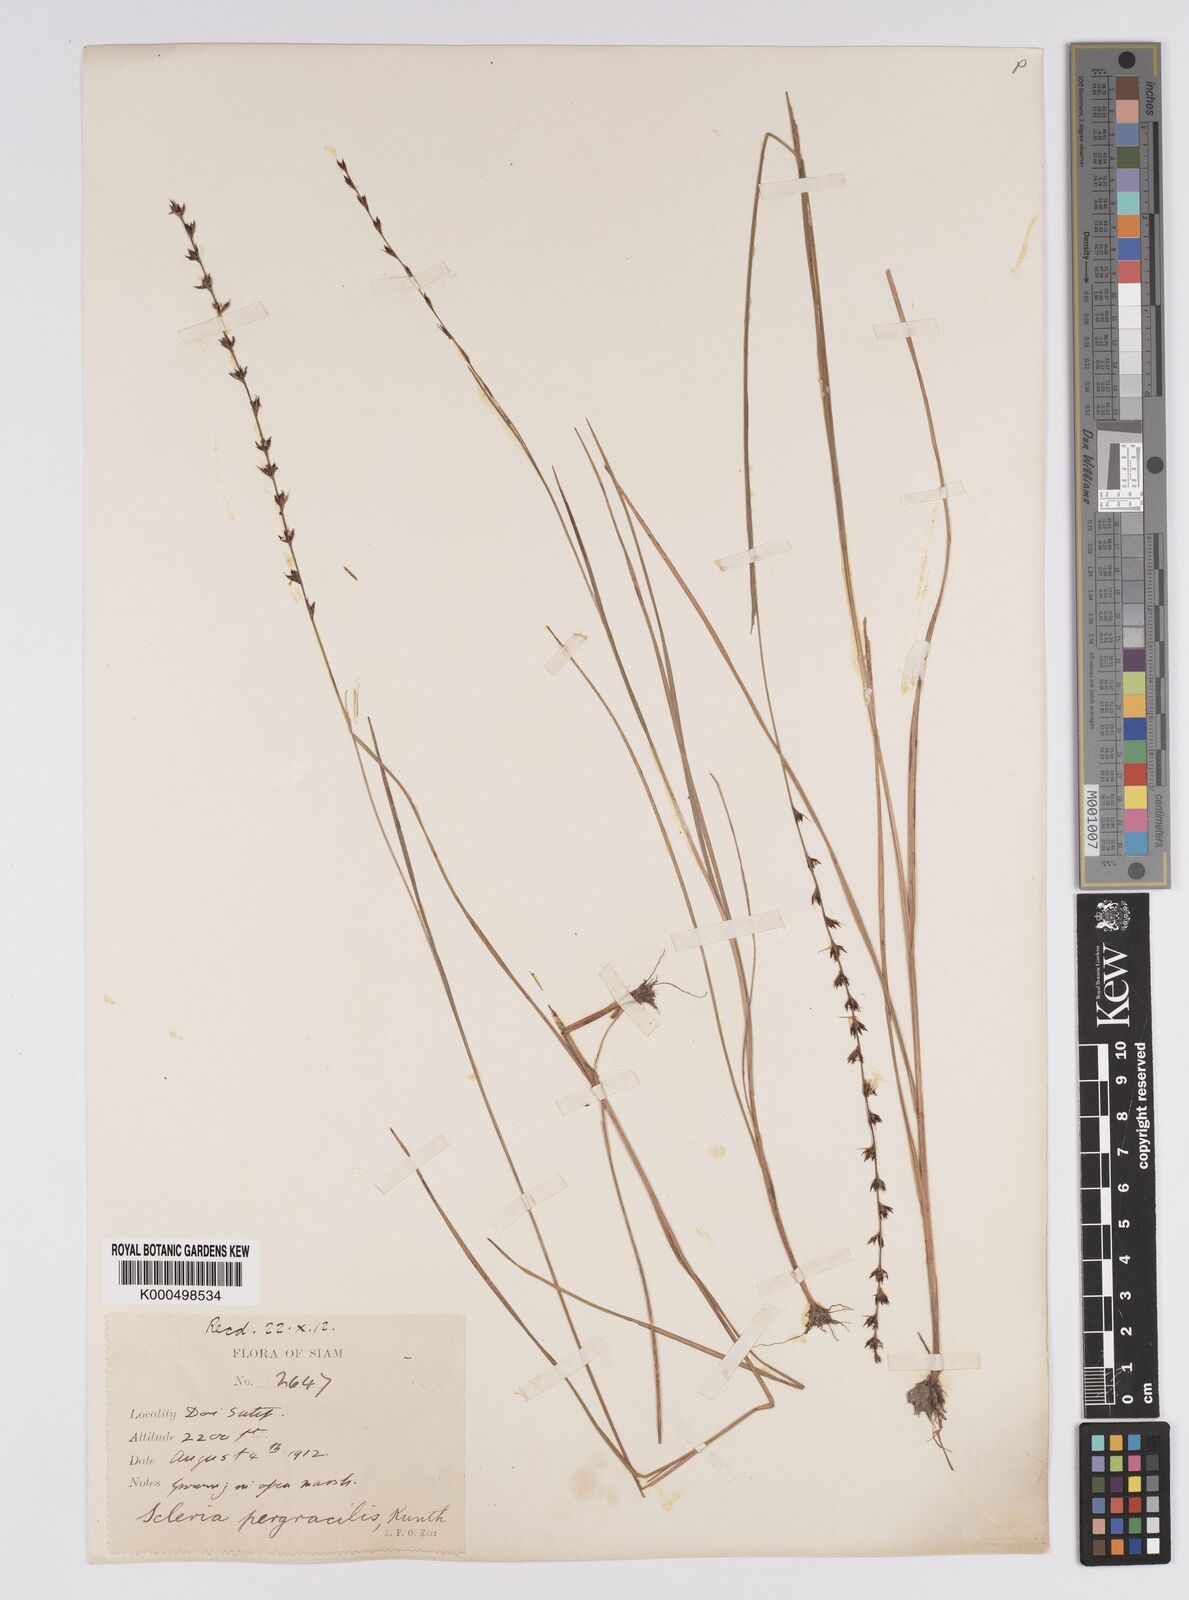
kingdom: Plantae
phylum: Tracheophyta
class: Liliopsida
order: Poales
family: Cyperaceae
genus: Scleria
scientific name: Scleria pergracilis
